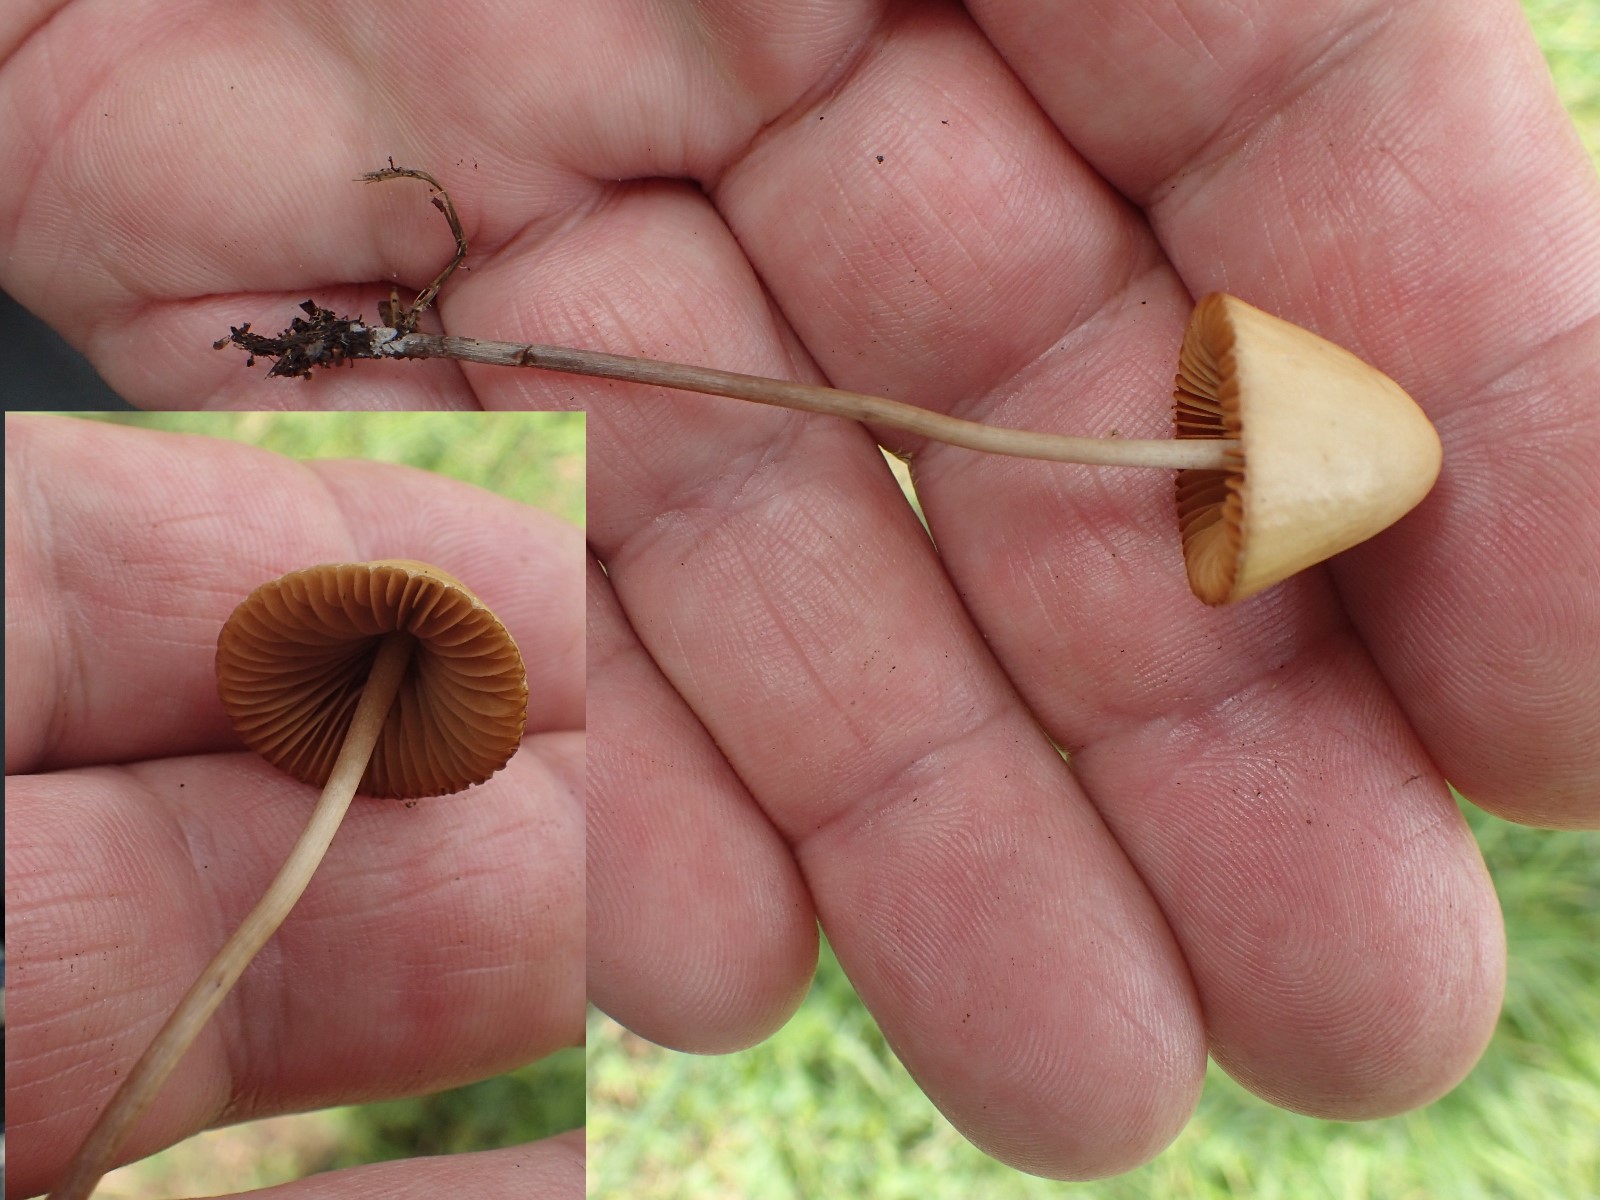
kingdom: Fungi
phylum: Basidiomycota
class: Agaricomycetes
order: Agaricales
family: Bolbitiaceae
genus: Conocybe
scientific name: Conocybe
